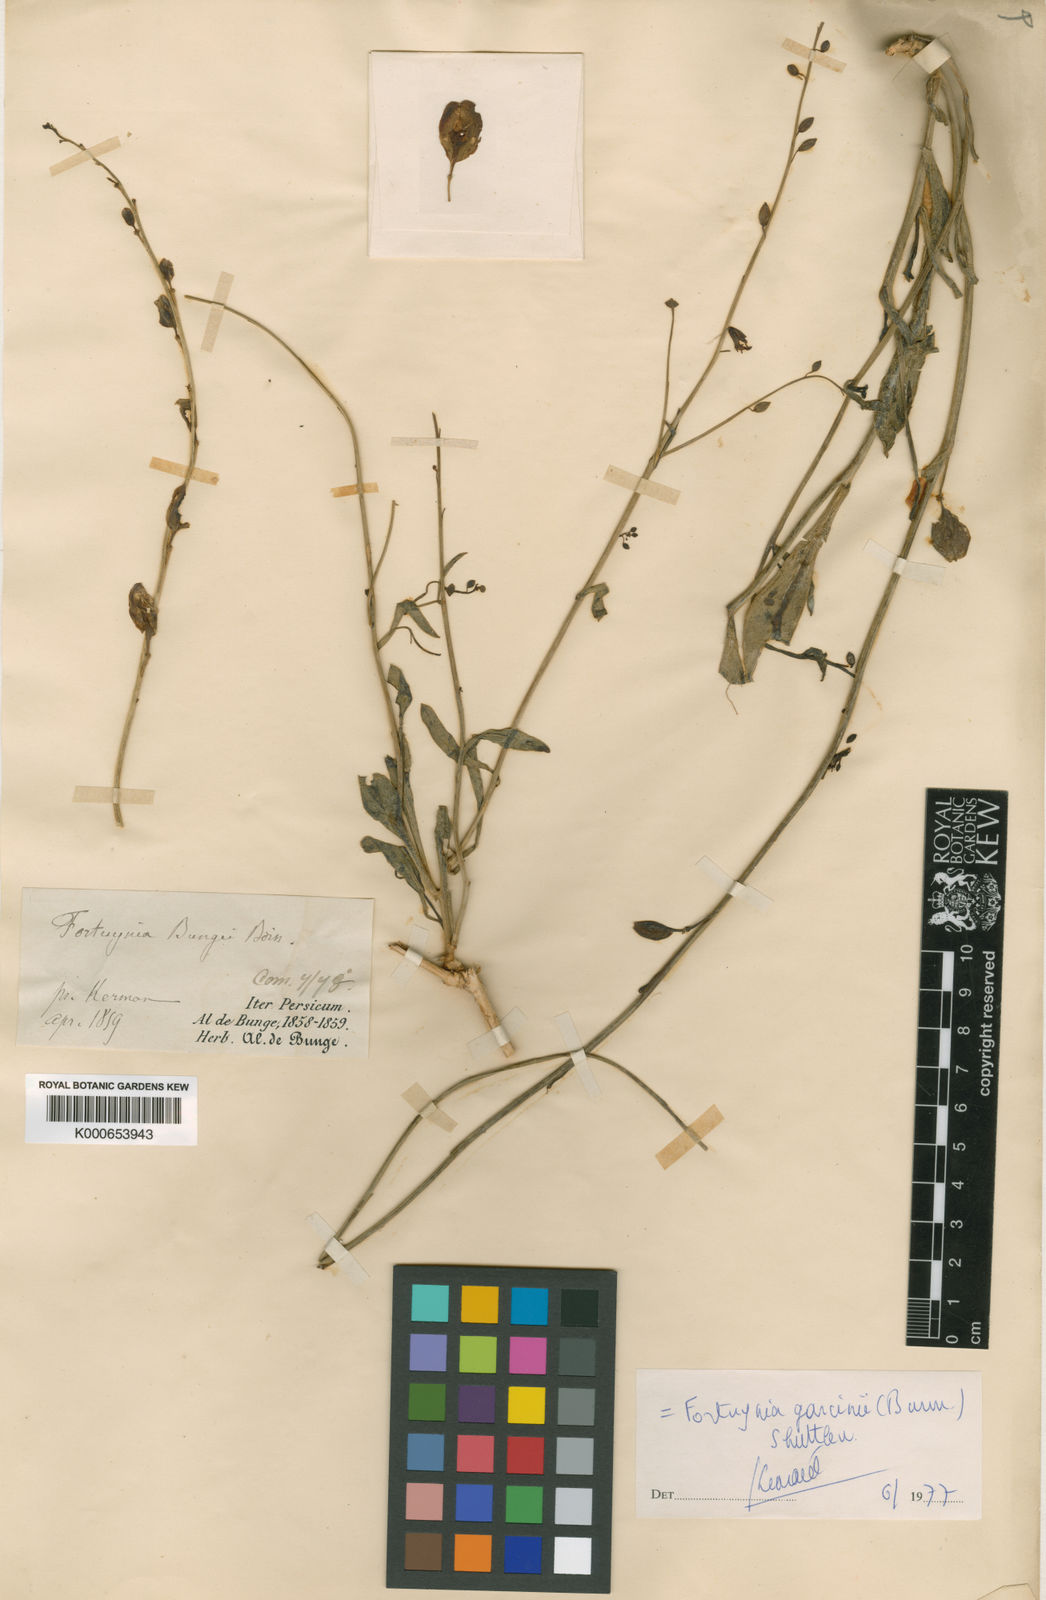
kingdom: Plantae
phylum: Tracheophyta
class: Magnoliopsida
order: Brassicales
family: Brassicaceae
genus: Fortuynia
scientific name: Fortuynia garcinii
